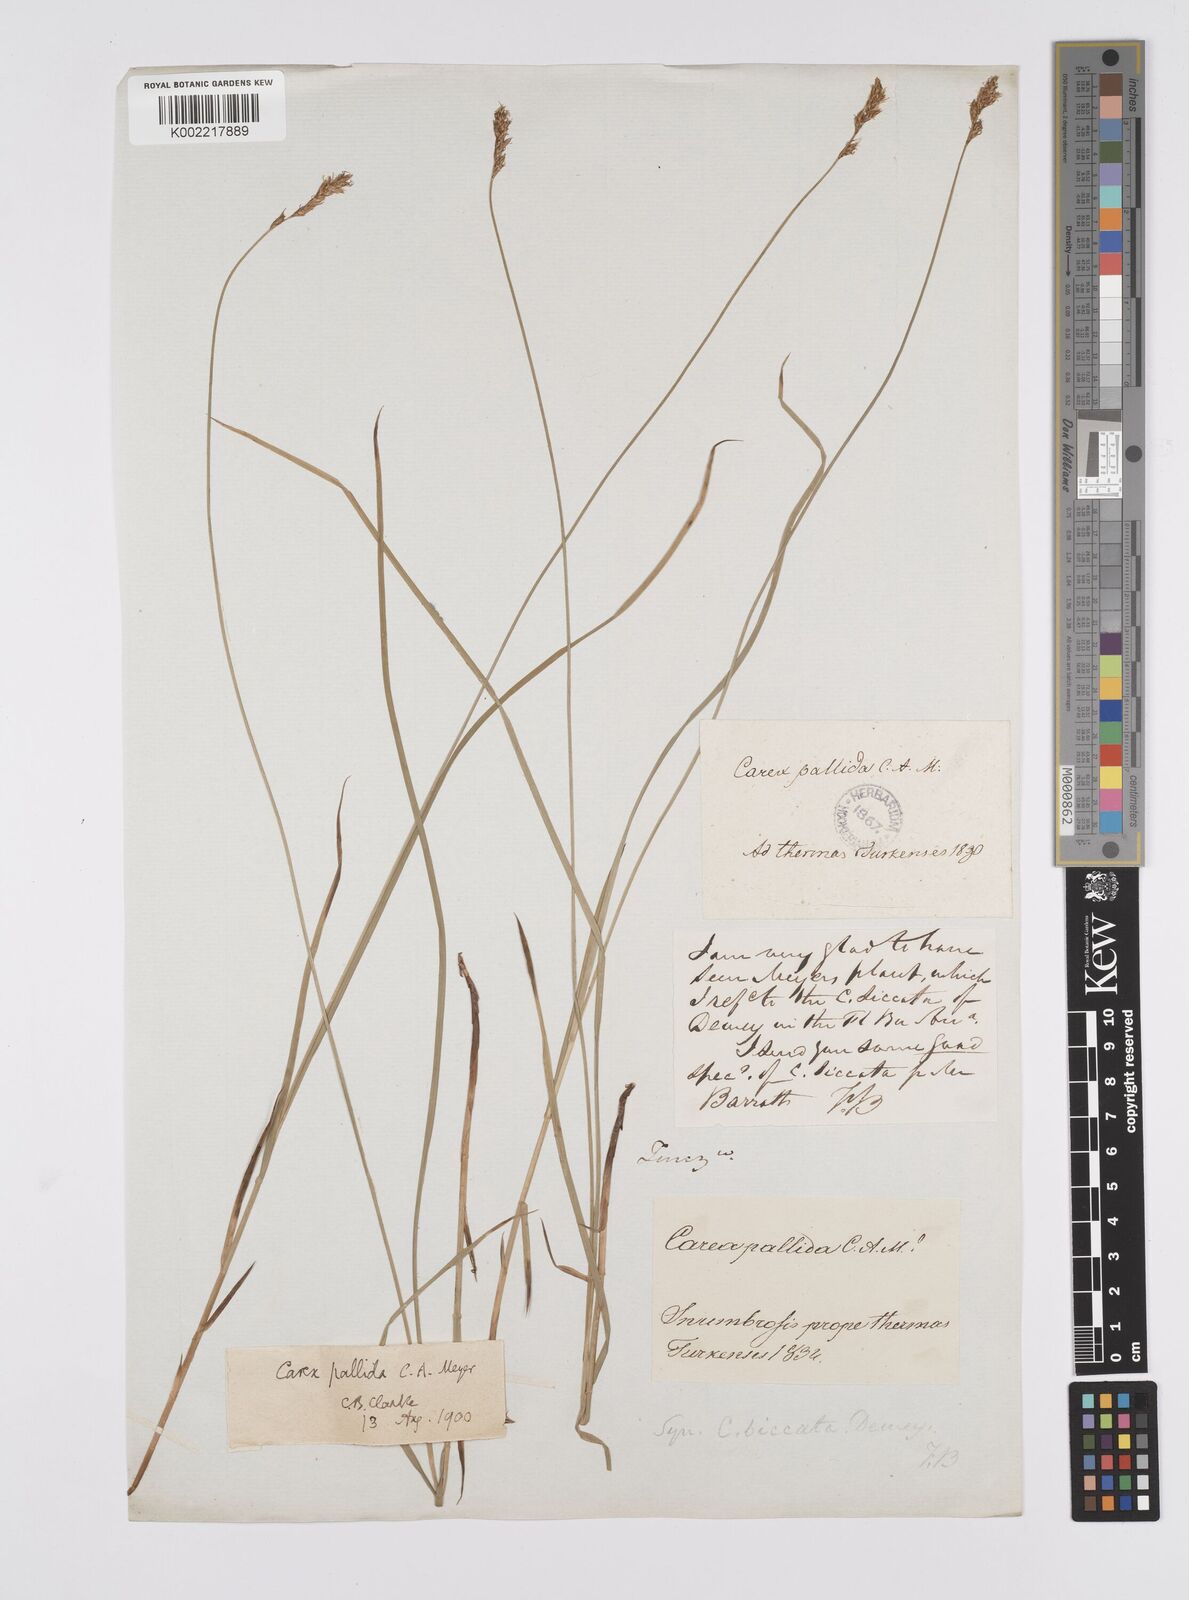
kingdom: Plantae
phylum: Tracheophyta
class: Liliopsida
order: Poales
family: Cyperaceae
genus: Carex
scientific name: Carex accrescens
